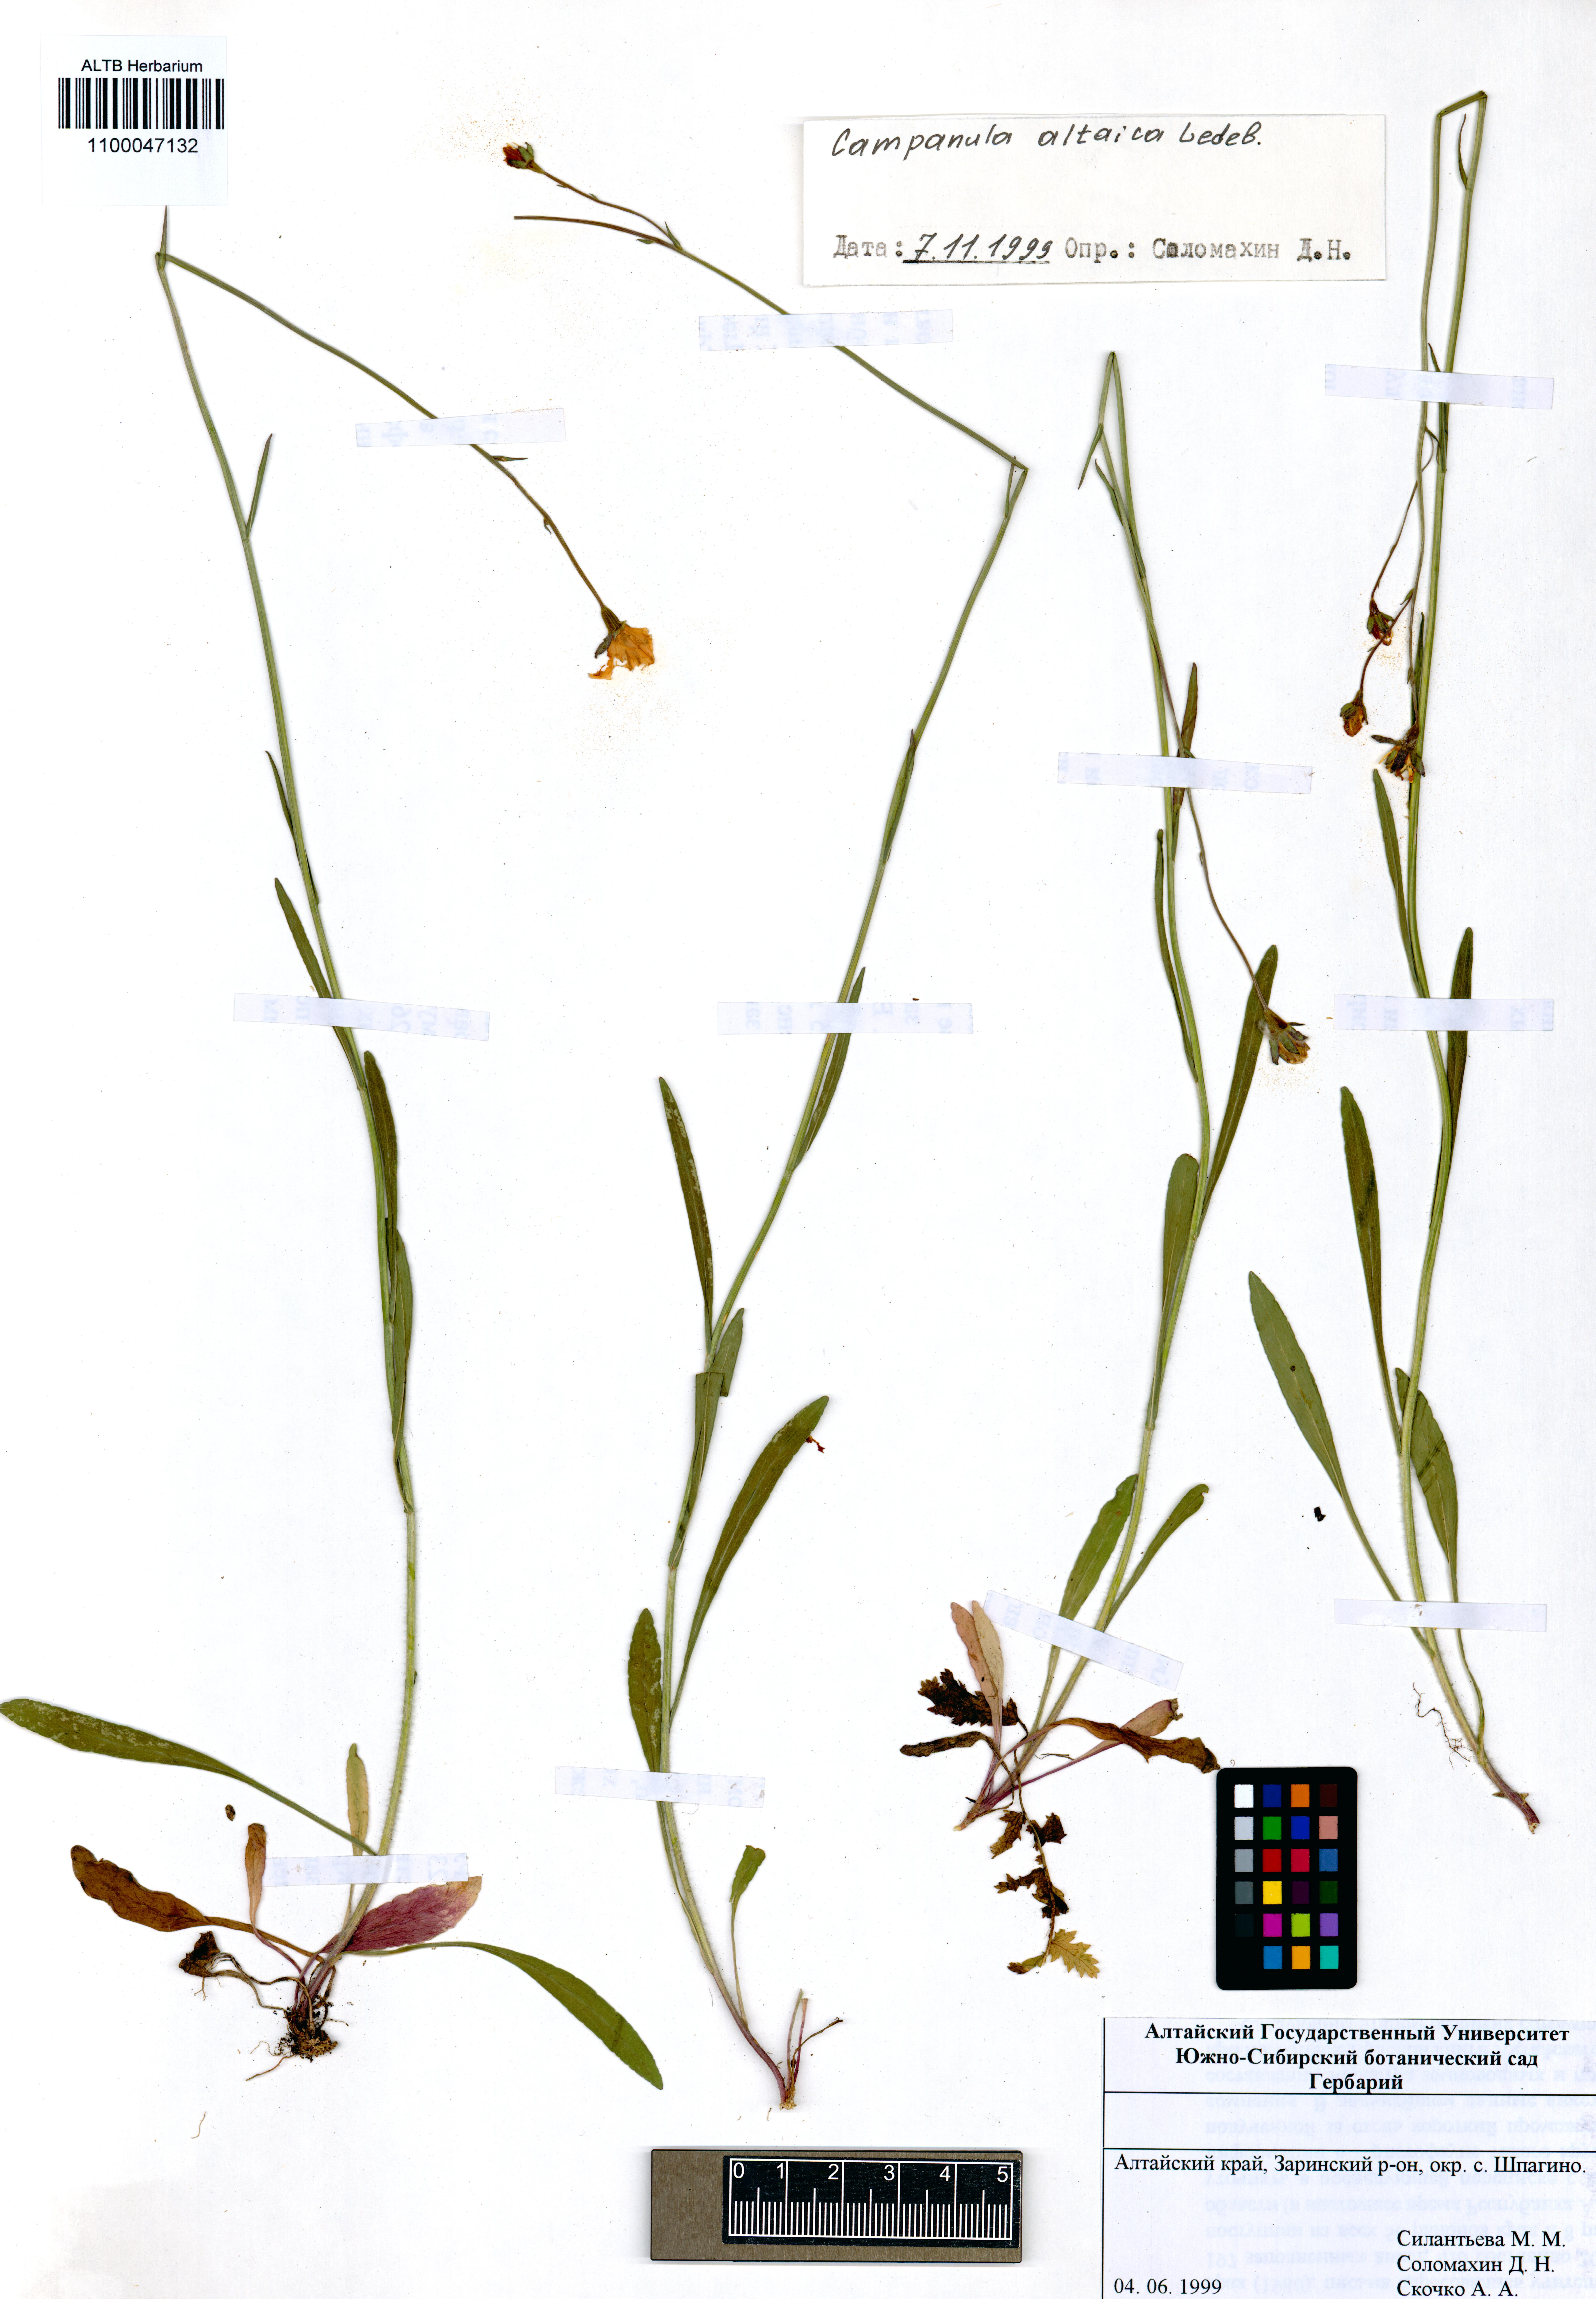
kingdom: Plantae
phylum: Tracheophyta
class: Magnoliopsida
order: Asterales
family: Campanulaceae
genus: Campanula
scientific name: Campanula stevenii
